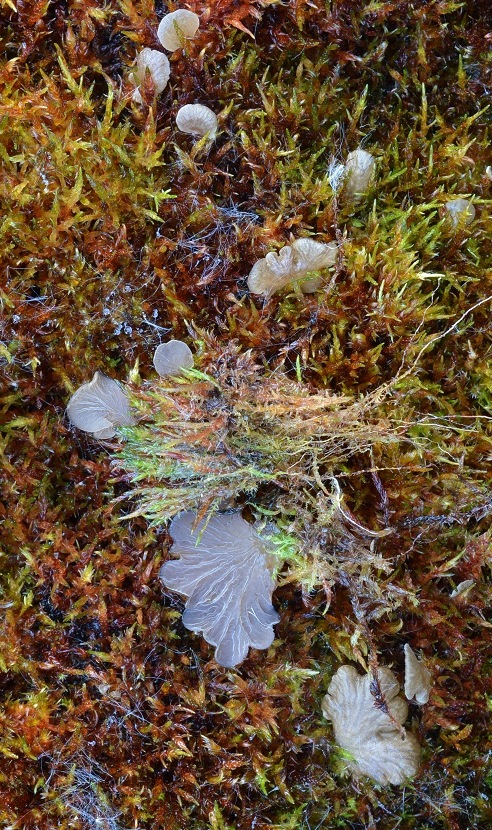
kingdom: Fungi
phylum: Basidiomycota
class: Agaricomycetes
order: Agaricales
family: Hygrophoraceae
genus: Arrhenia
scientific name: Arrhenia lobata
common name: siddende fontænehat
